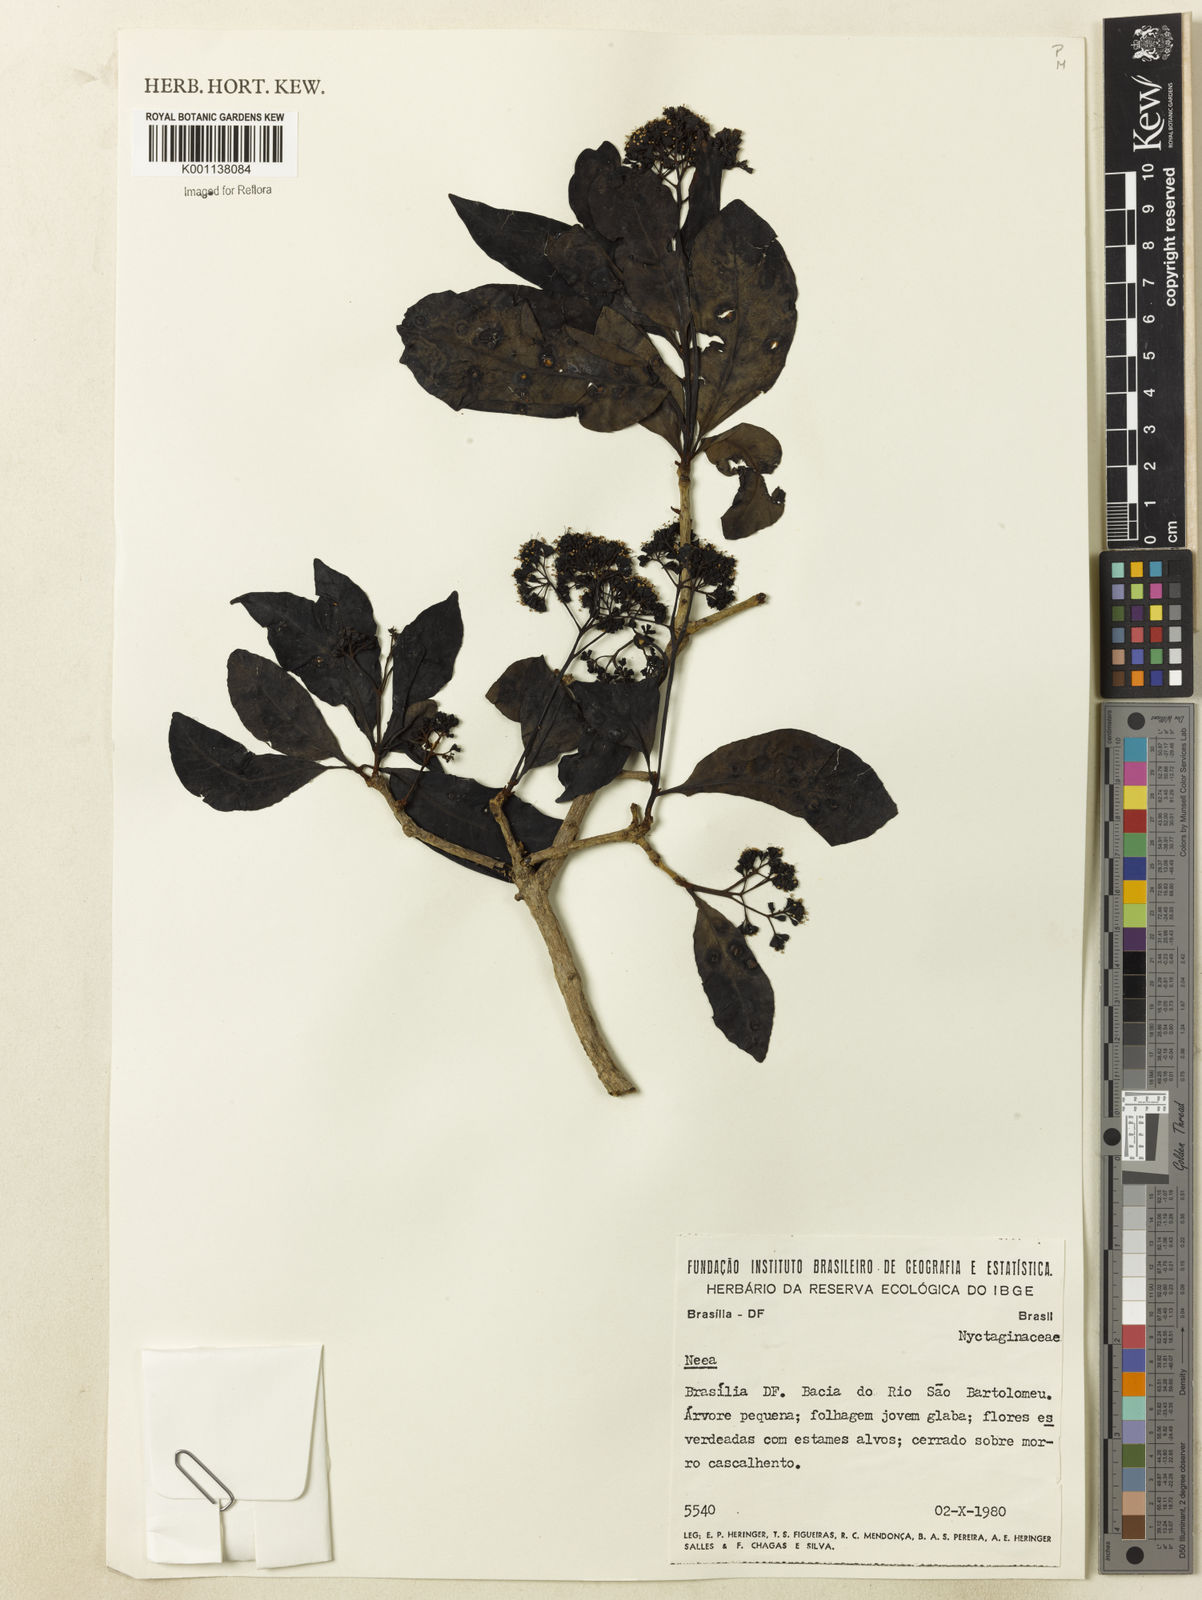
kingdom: Plantae
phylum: Tracheophyta
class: Magnoliopsida
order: Caryophyllales
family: Nyctaginaceae
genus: Neea
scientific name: Neea
